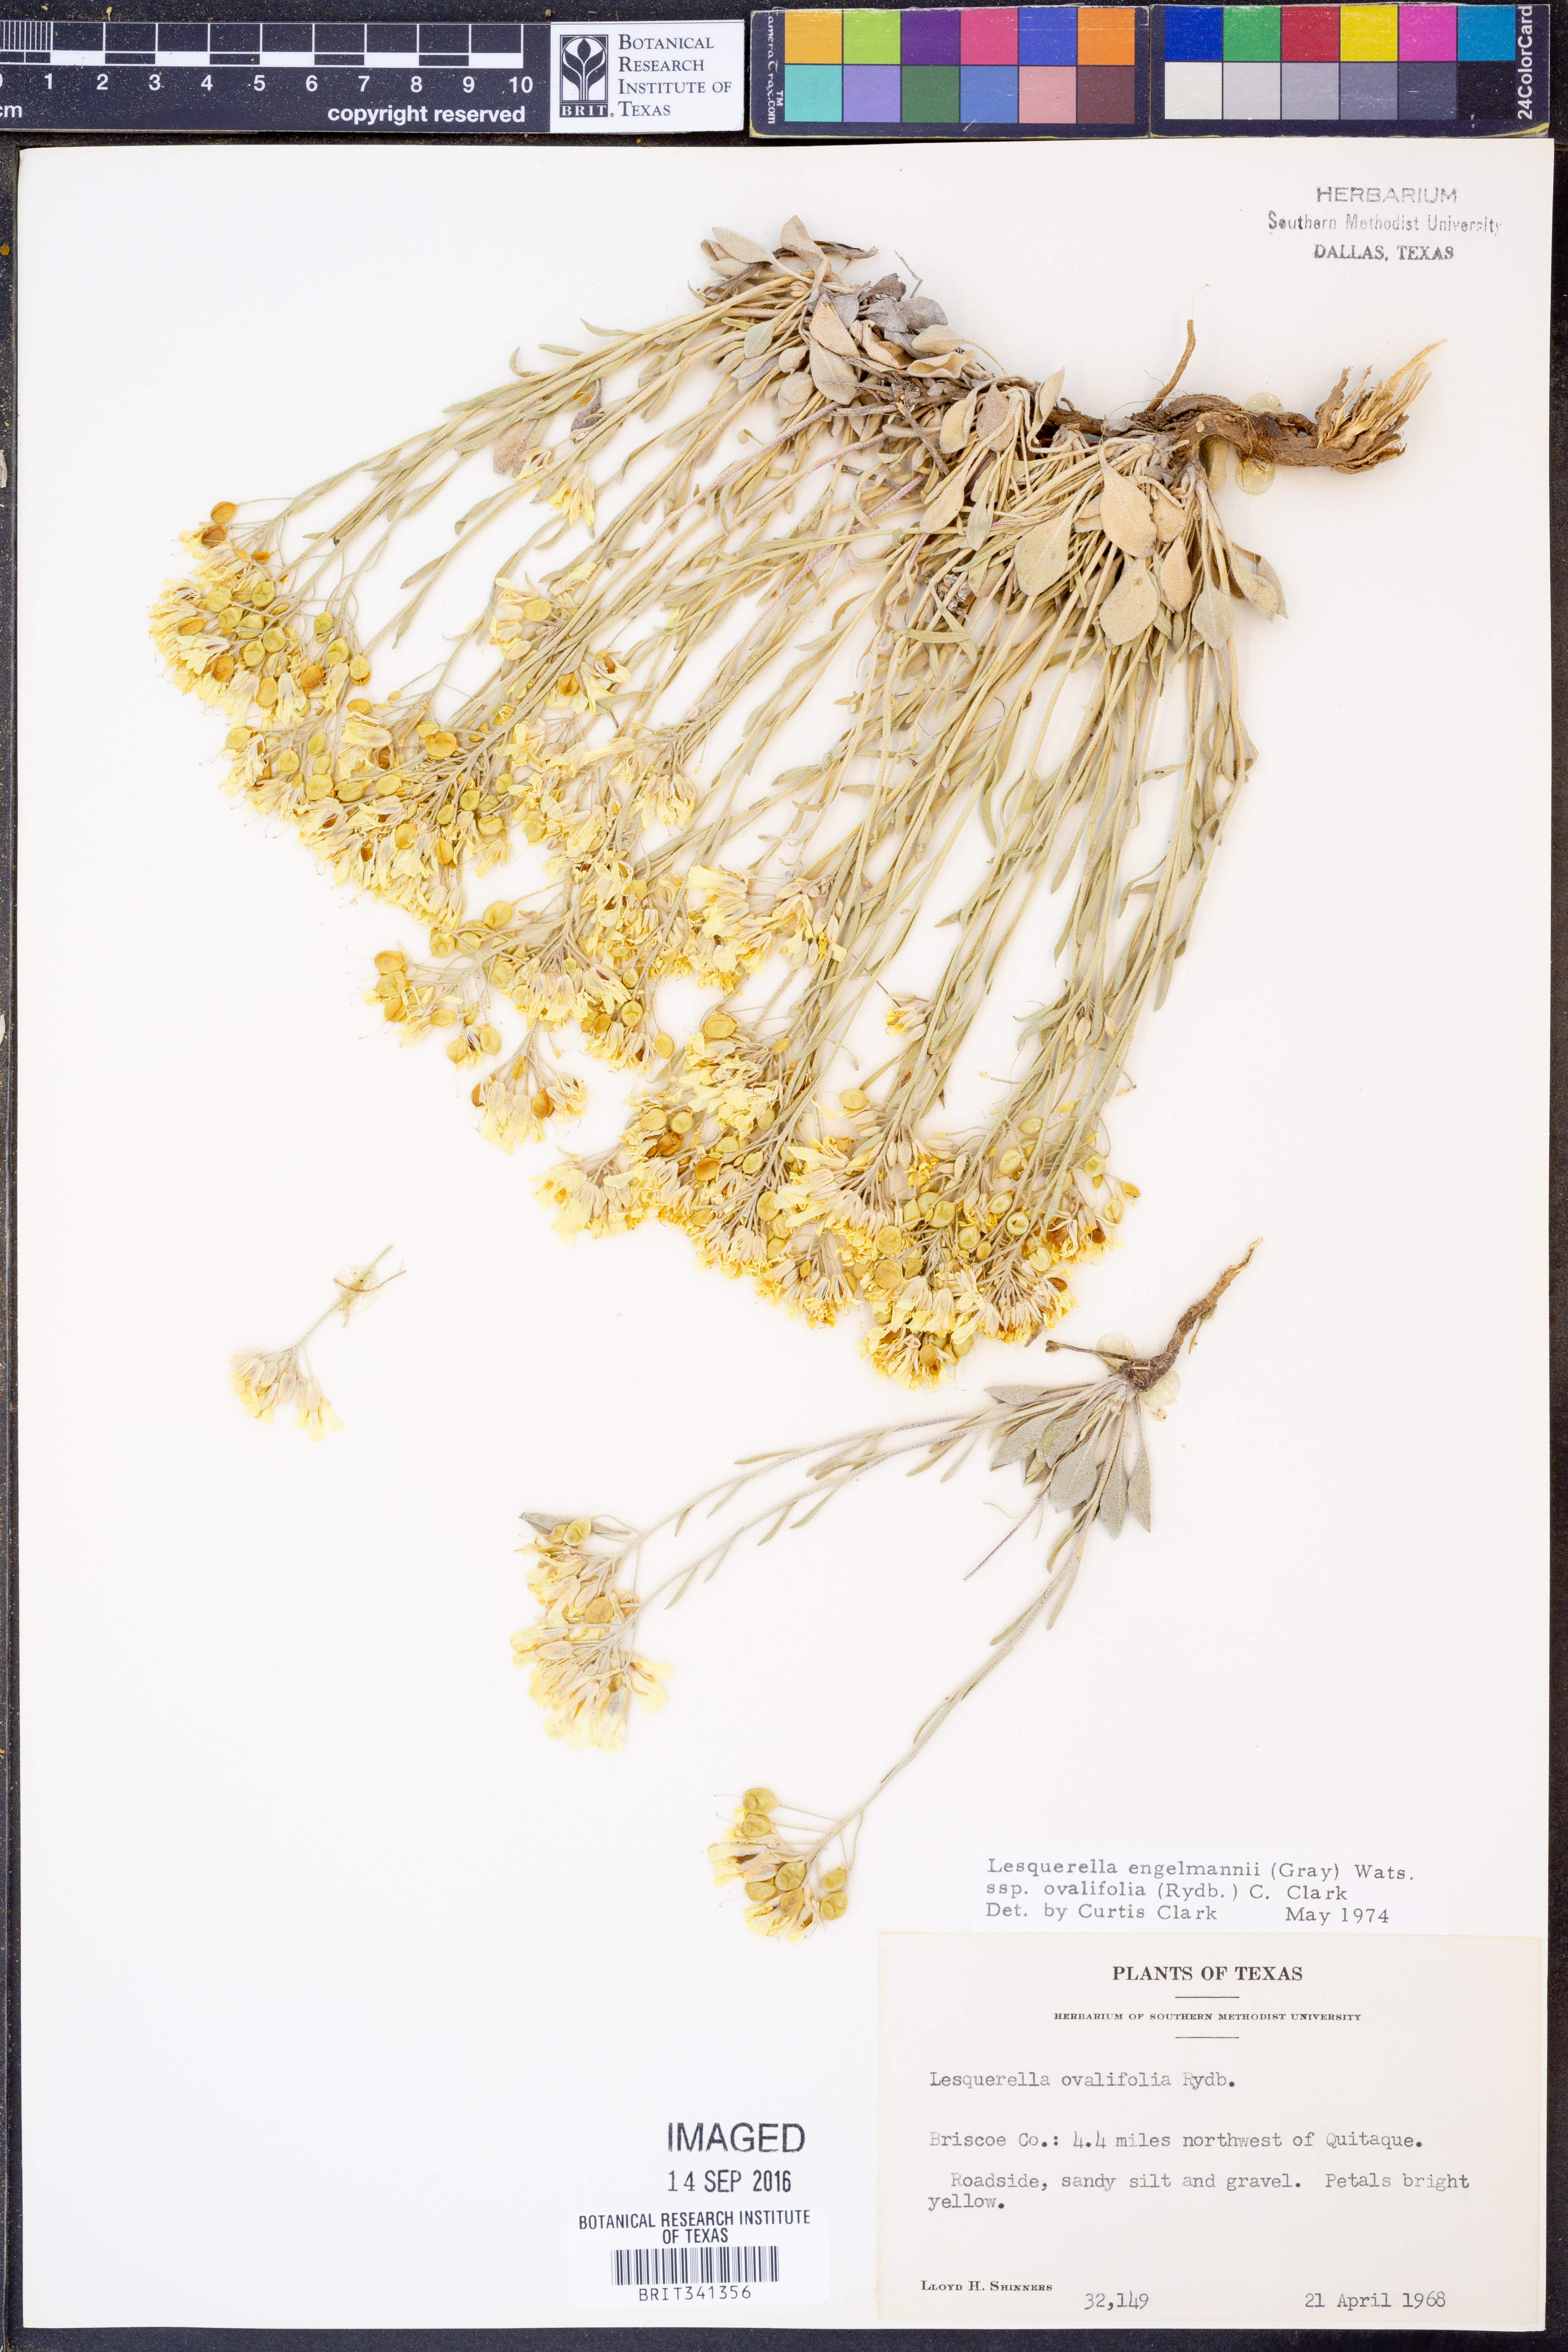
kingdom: Plantae
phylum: Tracheophyta
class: Magnoliopsida
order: Brassicales
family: Brassicaceae
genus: Physaria
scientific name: Physaria ovalifolia
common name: Round-leaf bladderpod
